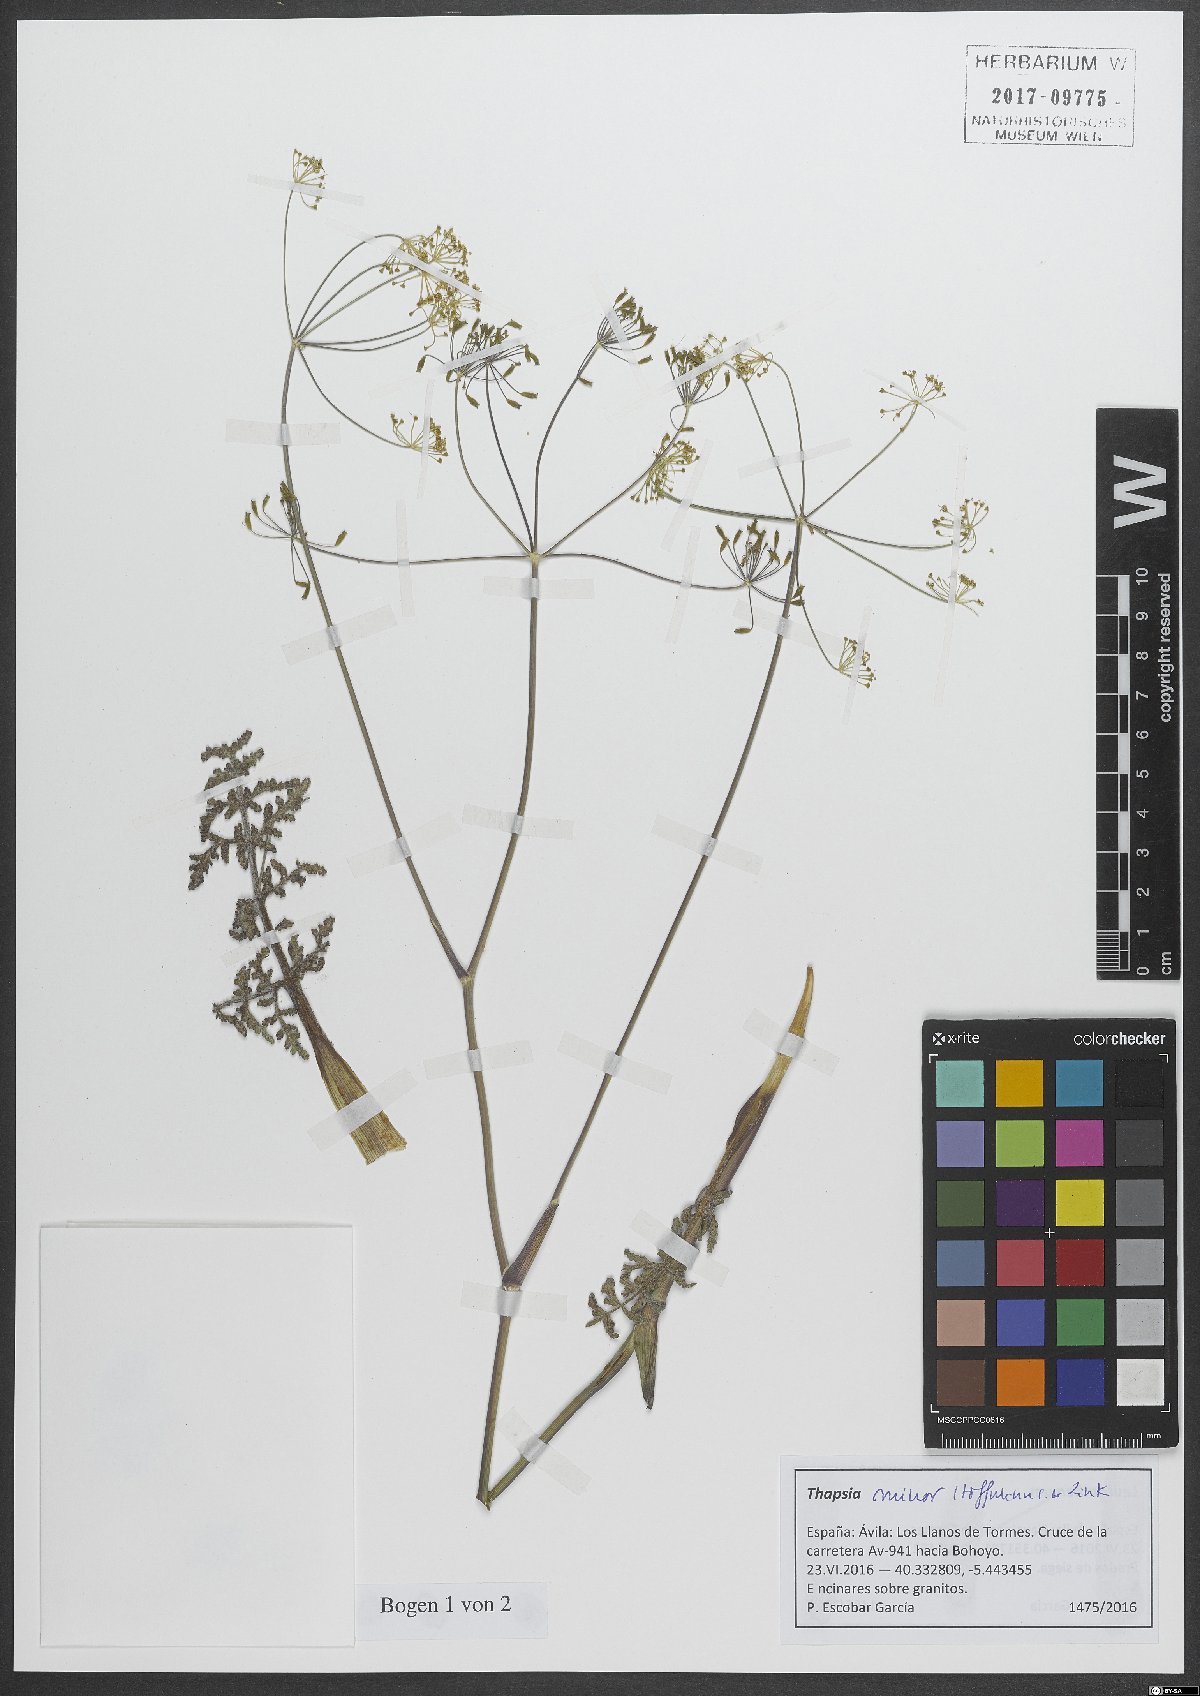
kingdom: Plantae
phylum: Tracheophyta
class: Magnoliopsida
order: Apiales
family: Apiaceae
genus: Thapsia
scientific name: Thapsia minor
